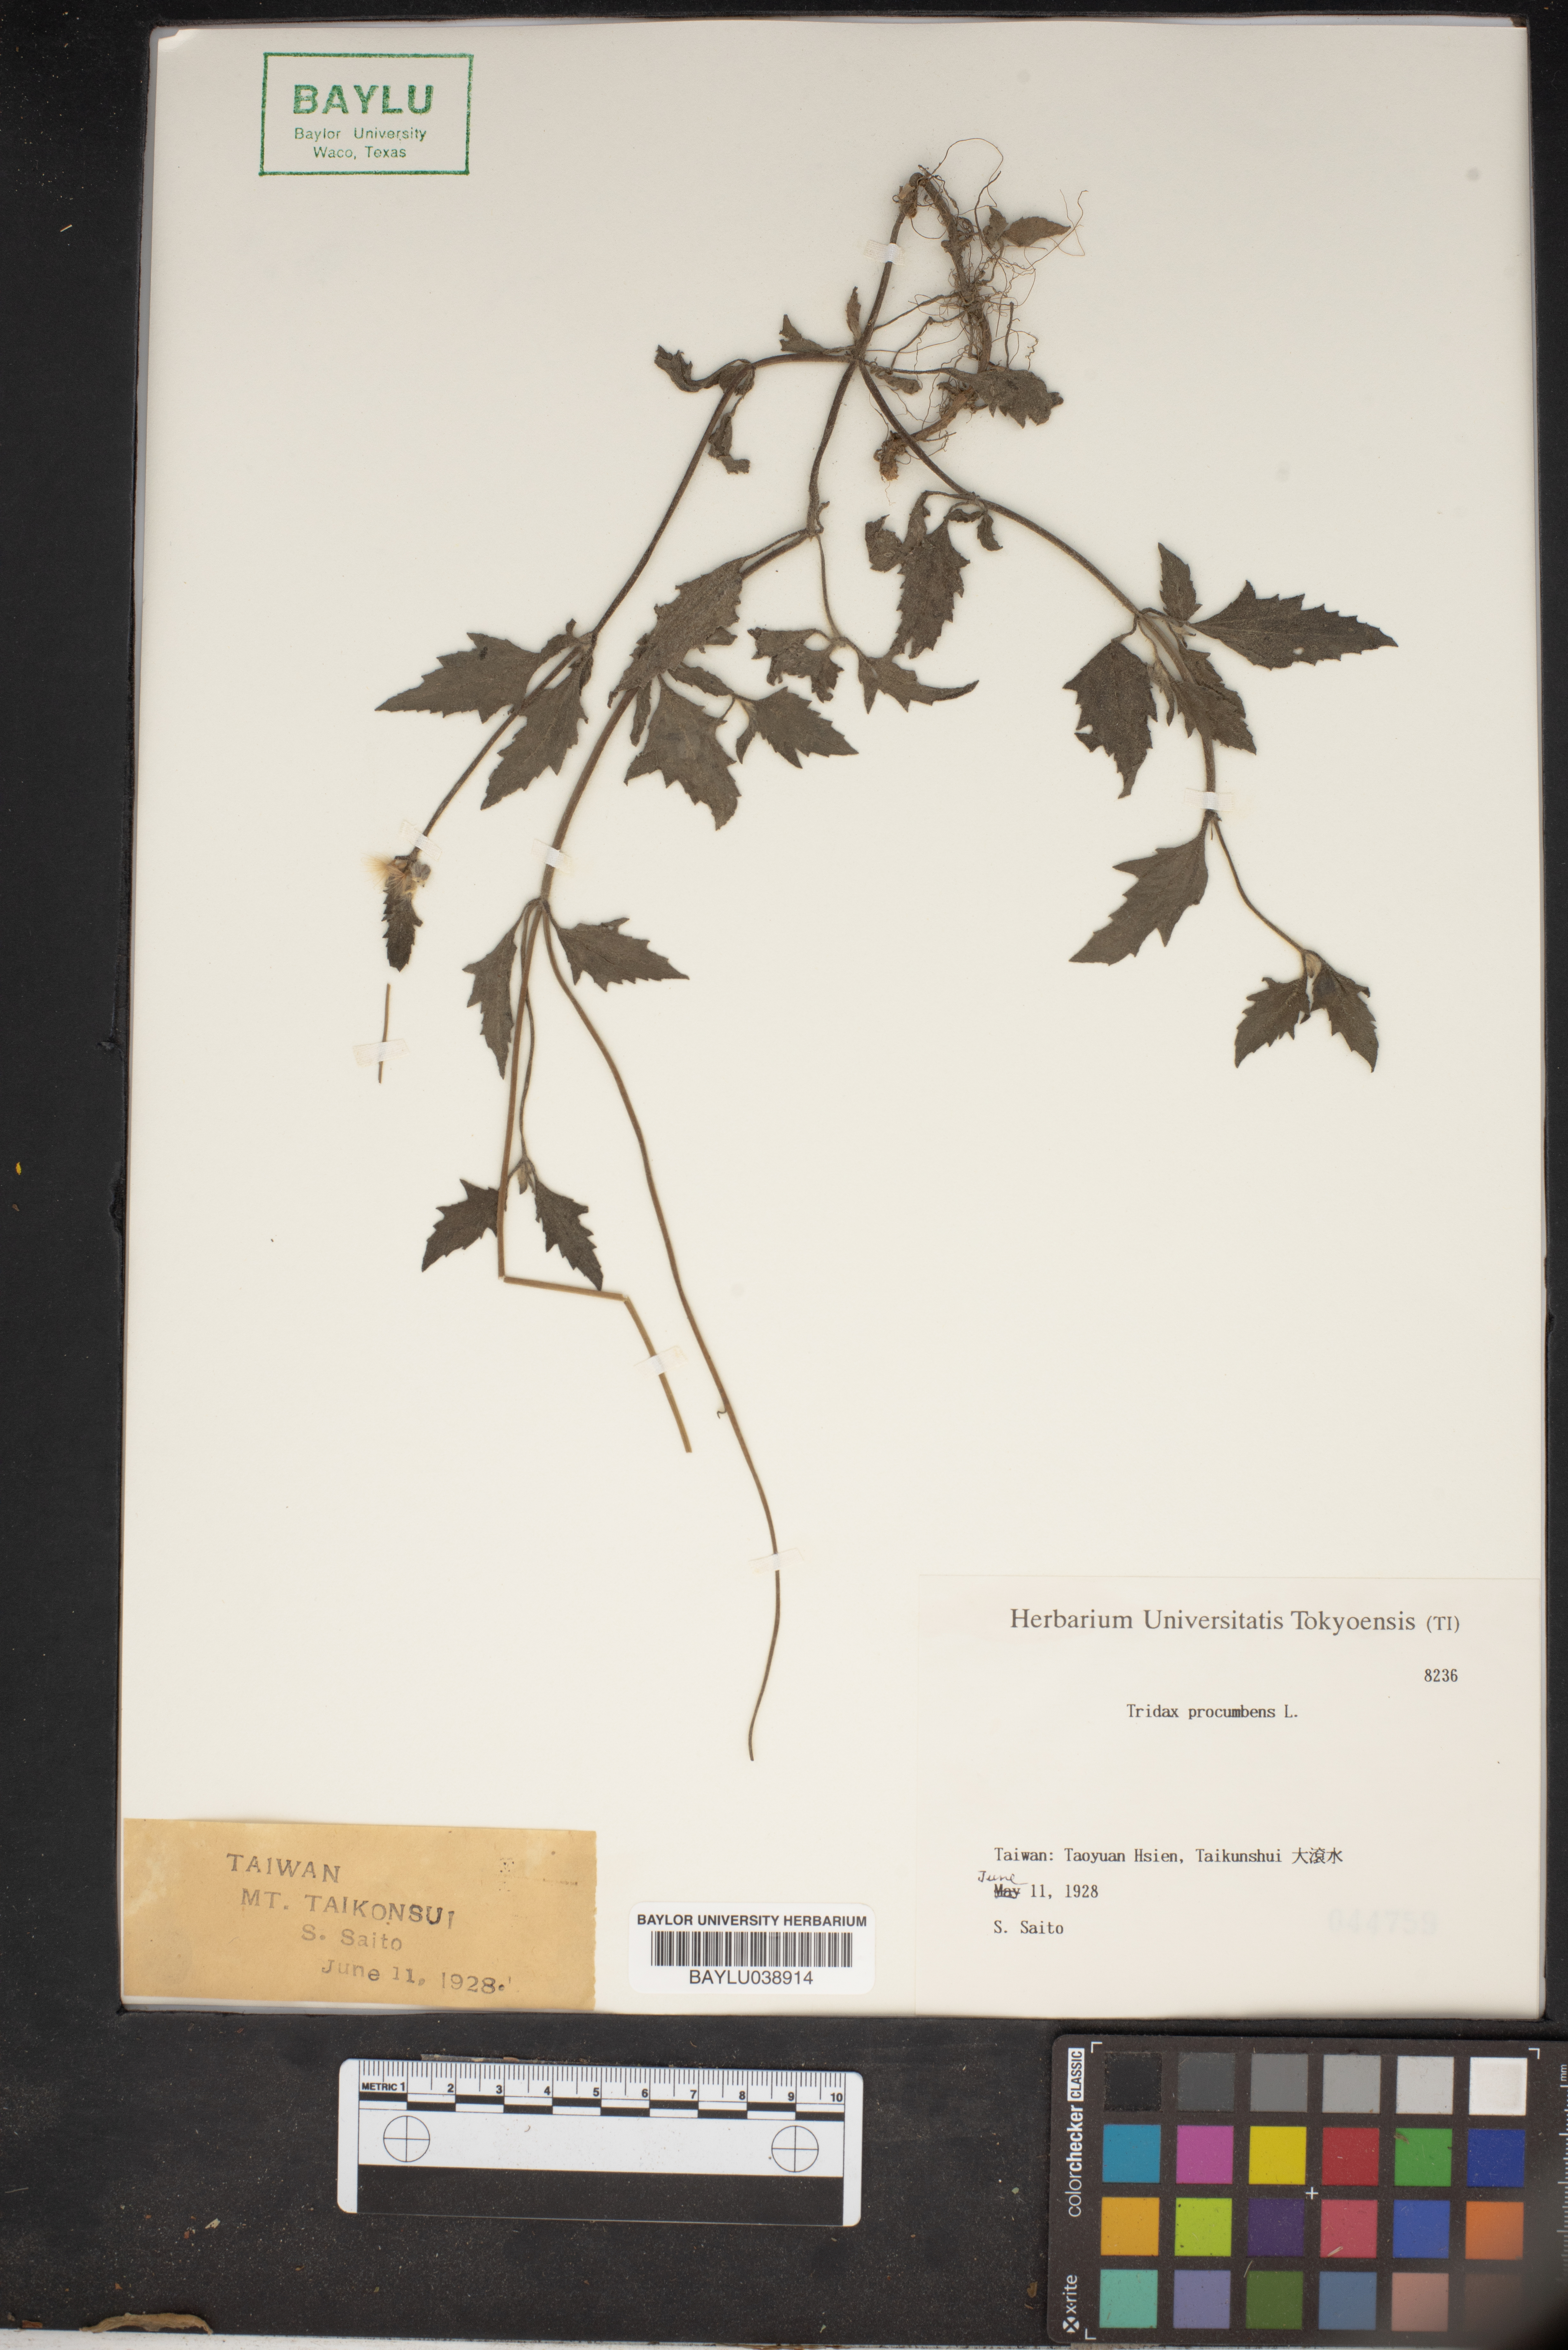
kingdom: Plantae
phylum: Tracheophyta
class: Magnoliopsida
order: Asterales
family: Asteraceae
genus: Tridax
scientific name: Tridax procumbens
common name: Coatbuttons
